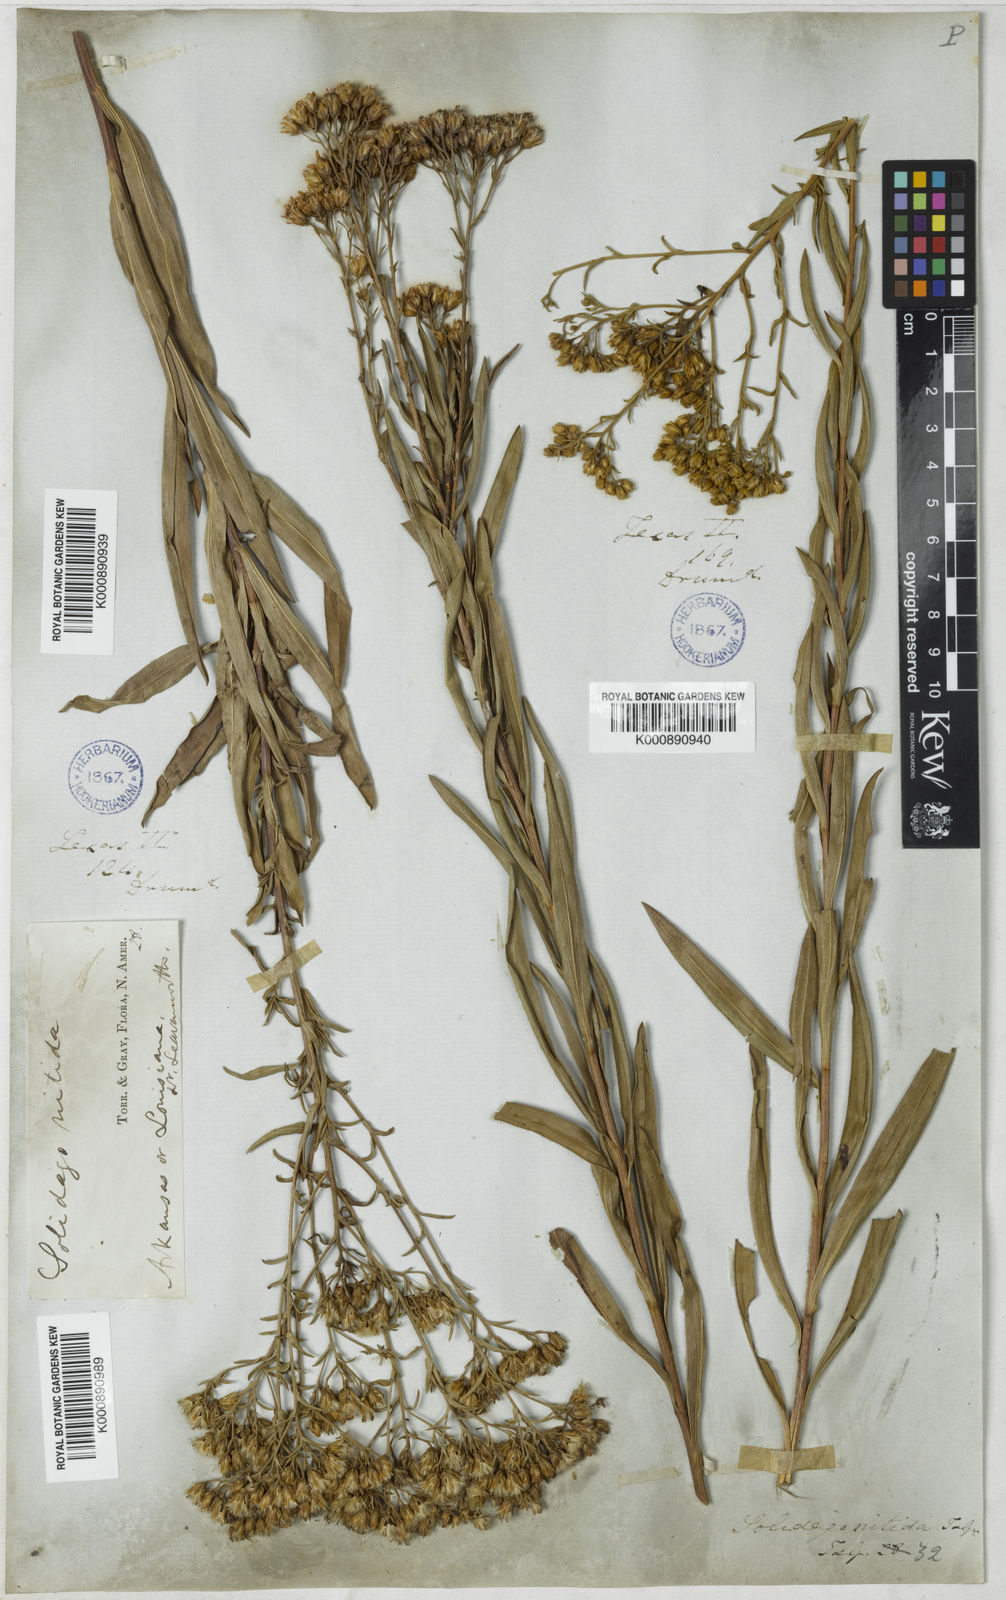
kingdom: Plantae
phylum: Tracheophyta
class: Magnoliopsida
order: Asterales
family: Asteraceae
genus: Solidago
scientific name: Solidago nitida
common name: Shiny goldenrod
